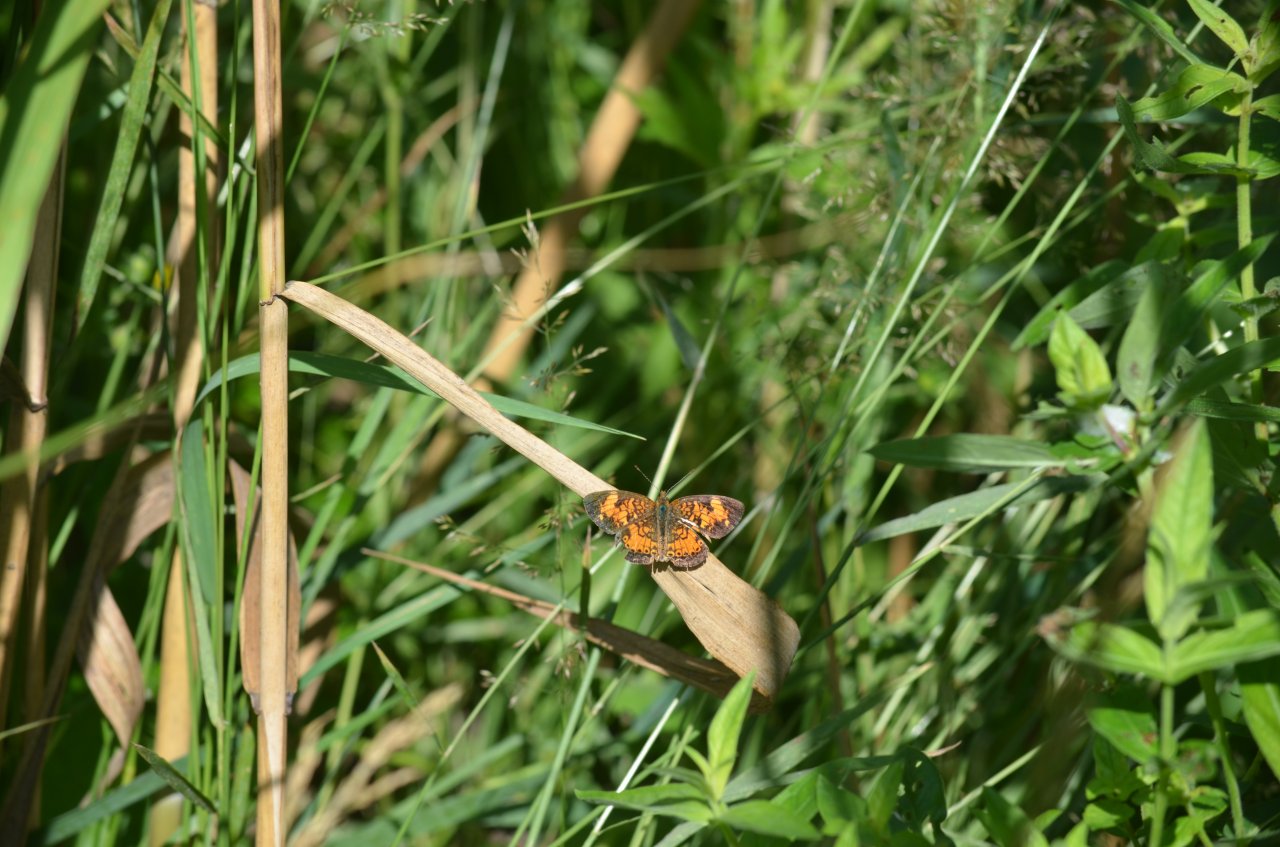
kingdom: Animalia
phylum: Arthropoda
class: Insecta
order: Lepidoptera
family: Nymphalidae
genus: Phyciodes
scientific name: Phyciodes tharos
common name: Northern Crescent
